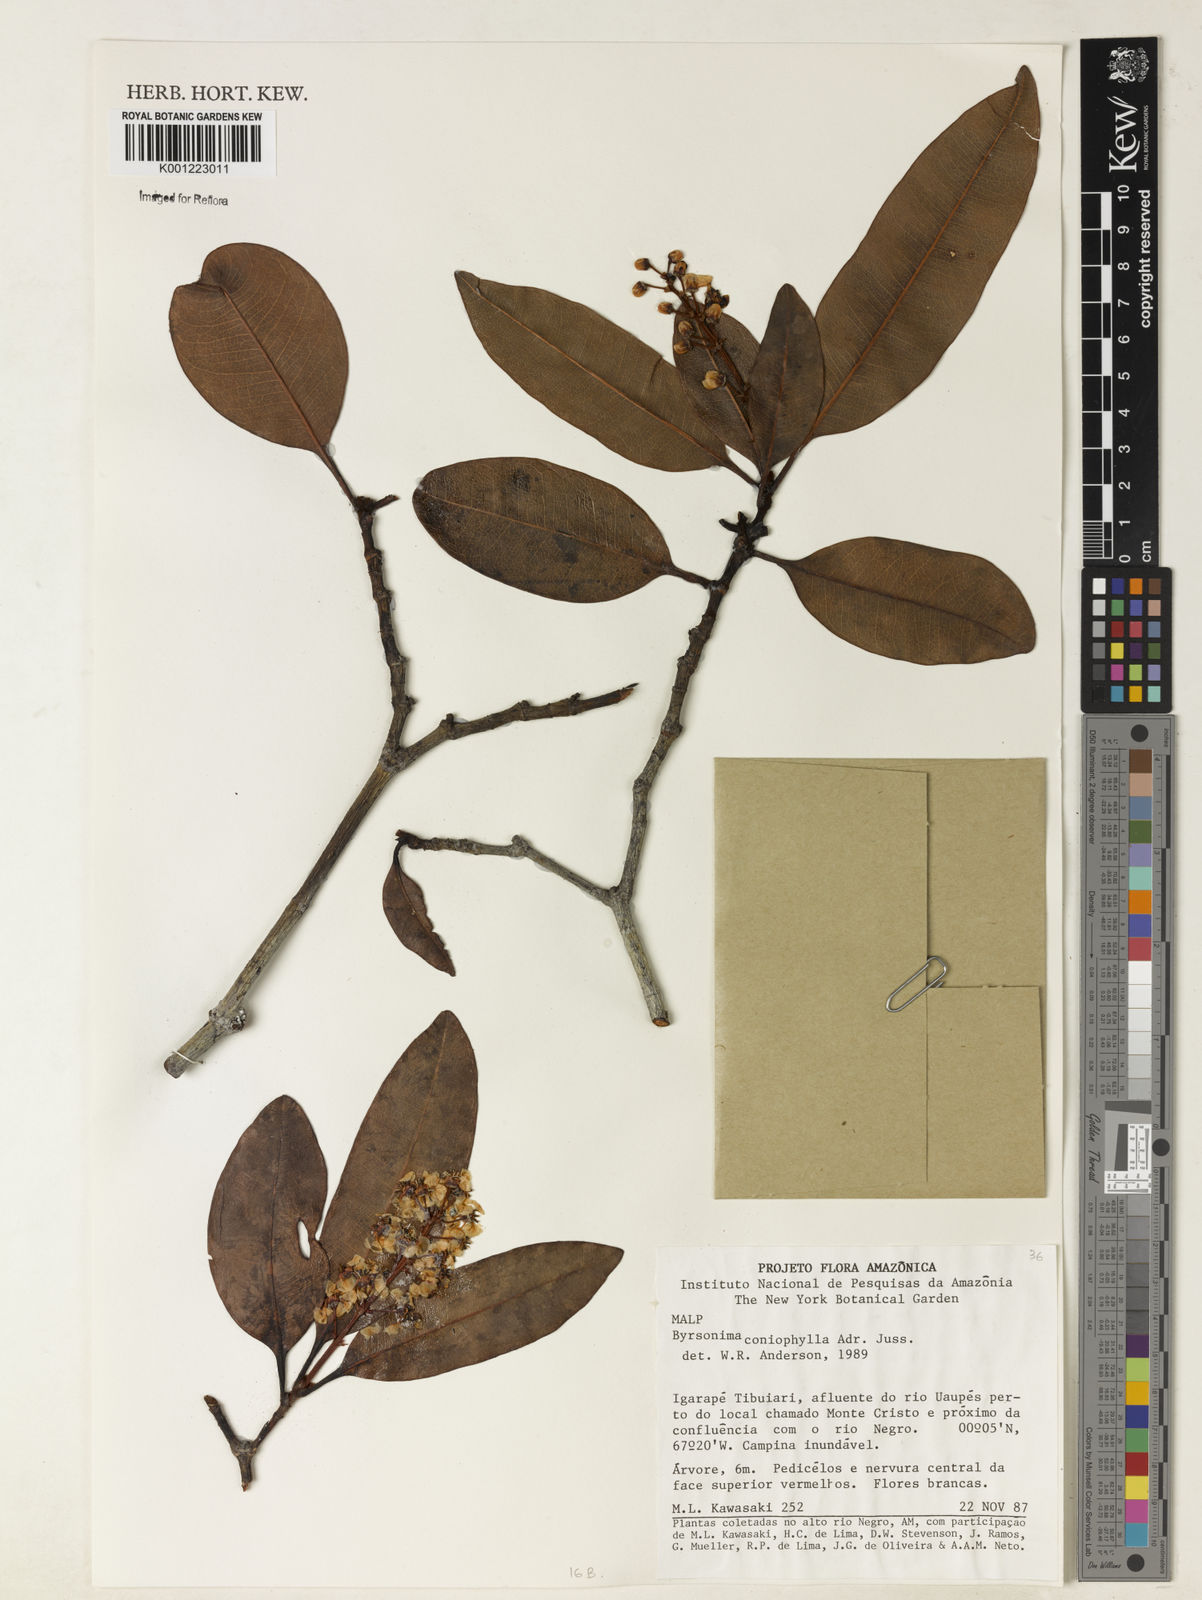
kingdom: Plantae
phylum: Tracheophyta
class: Magnoliopsida
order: Malpighiales
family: Malpighiaceae
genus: Byrsonima
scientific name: Byrsonima coniophylla
